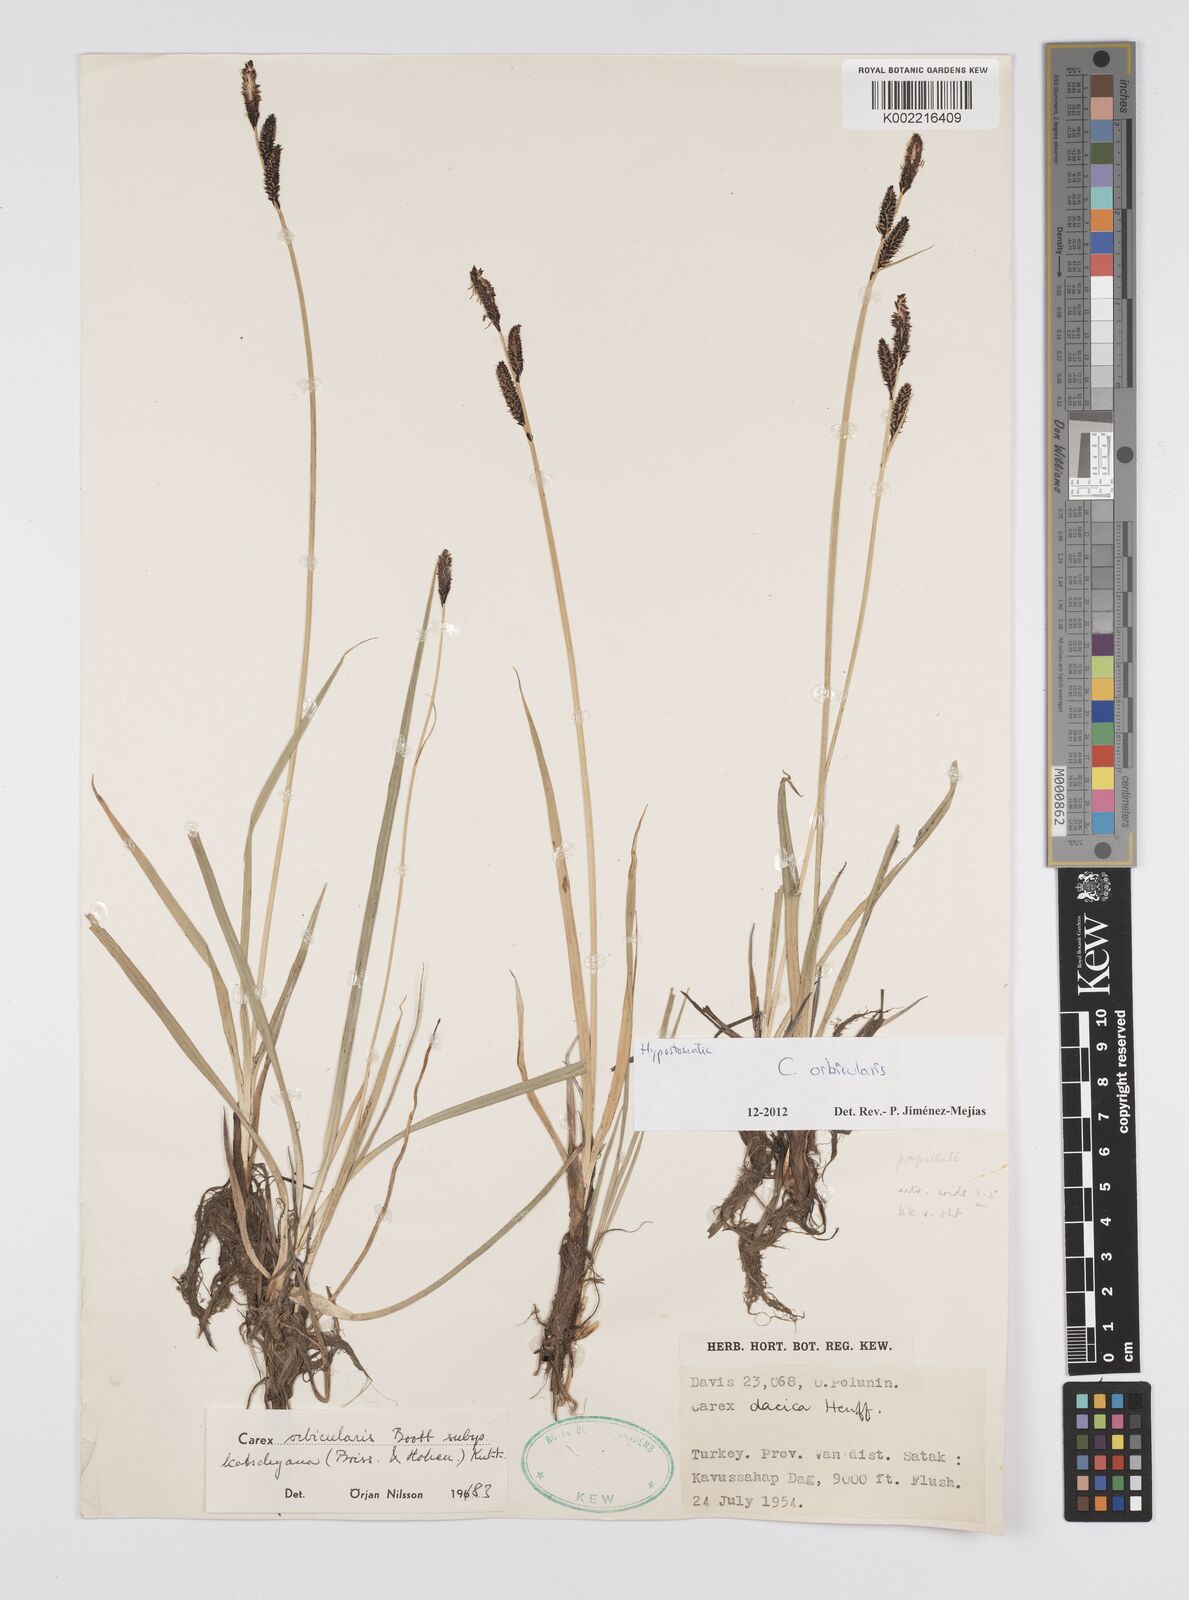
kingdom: Plantae
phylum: Tracheophyta
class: Liliopsida
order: Poales
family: Cyperaceae
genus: Carex
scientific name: Carex orbicularis
